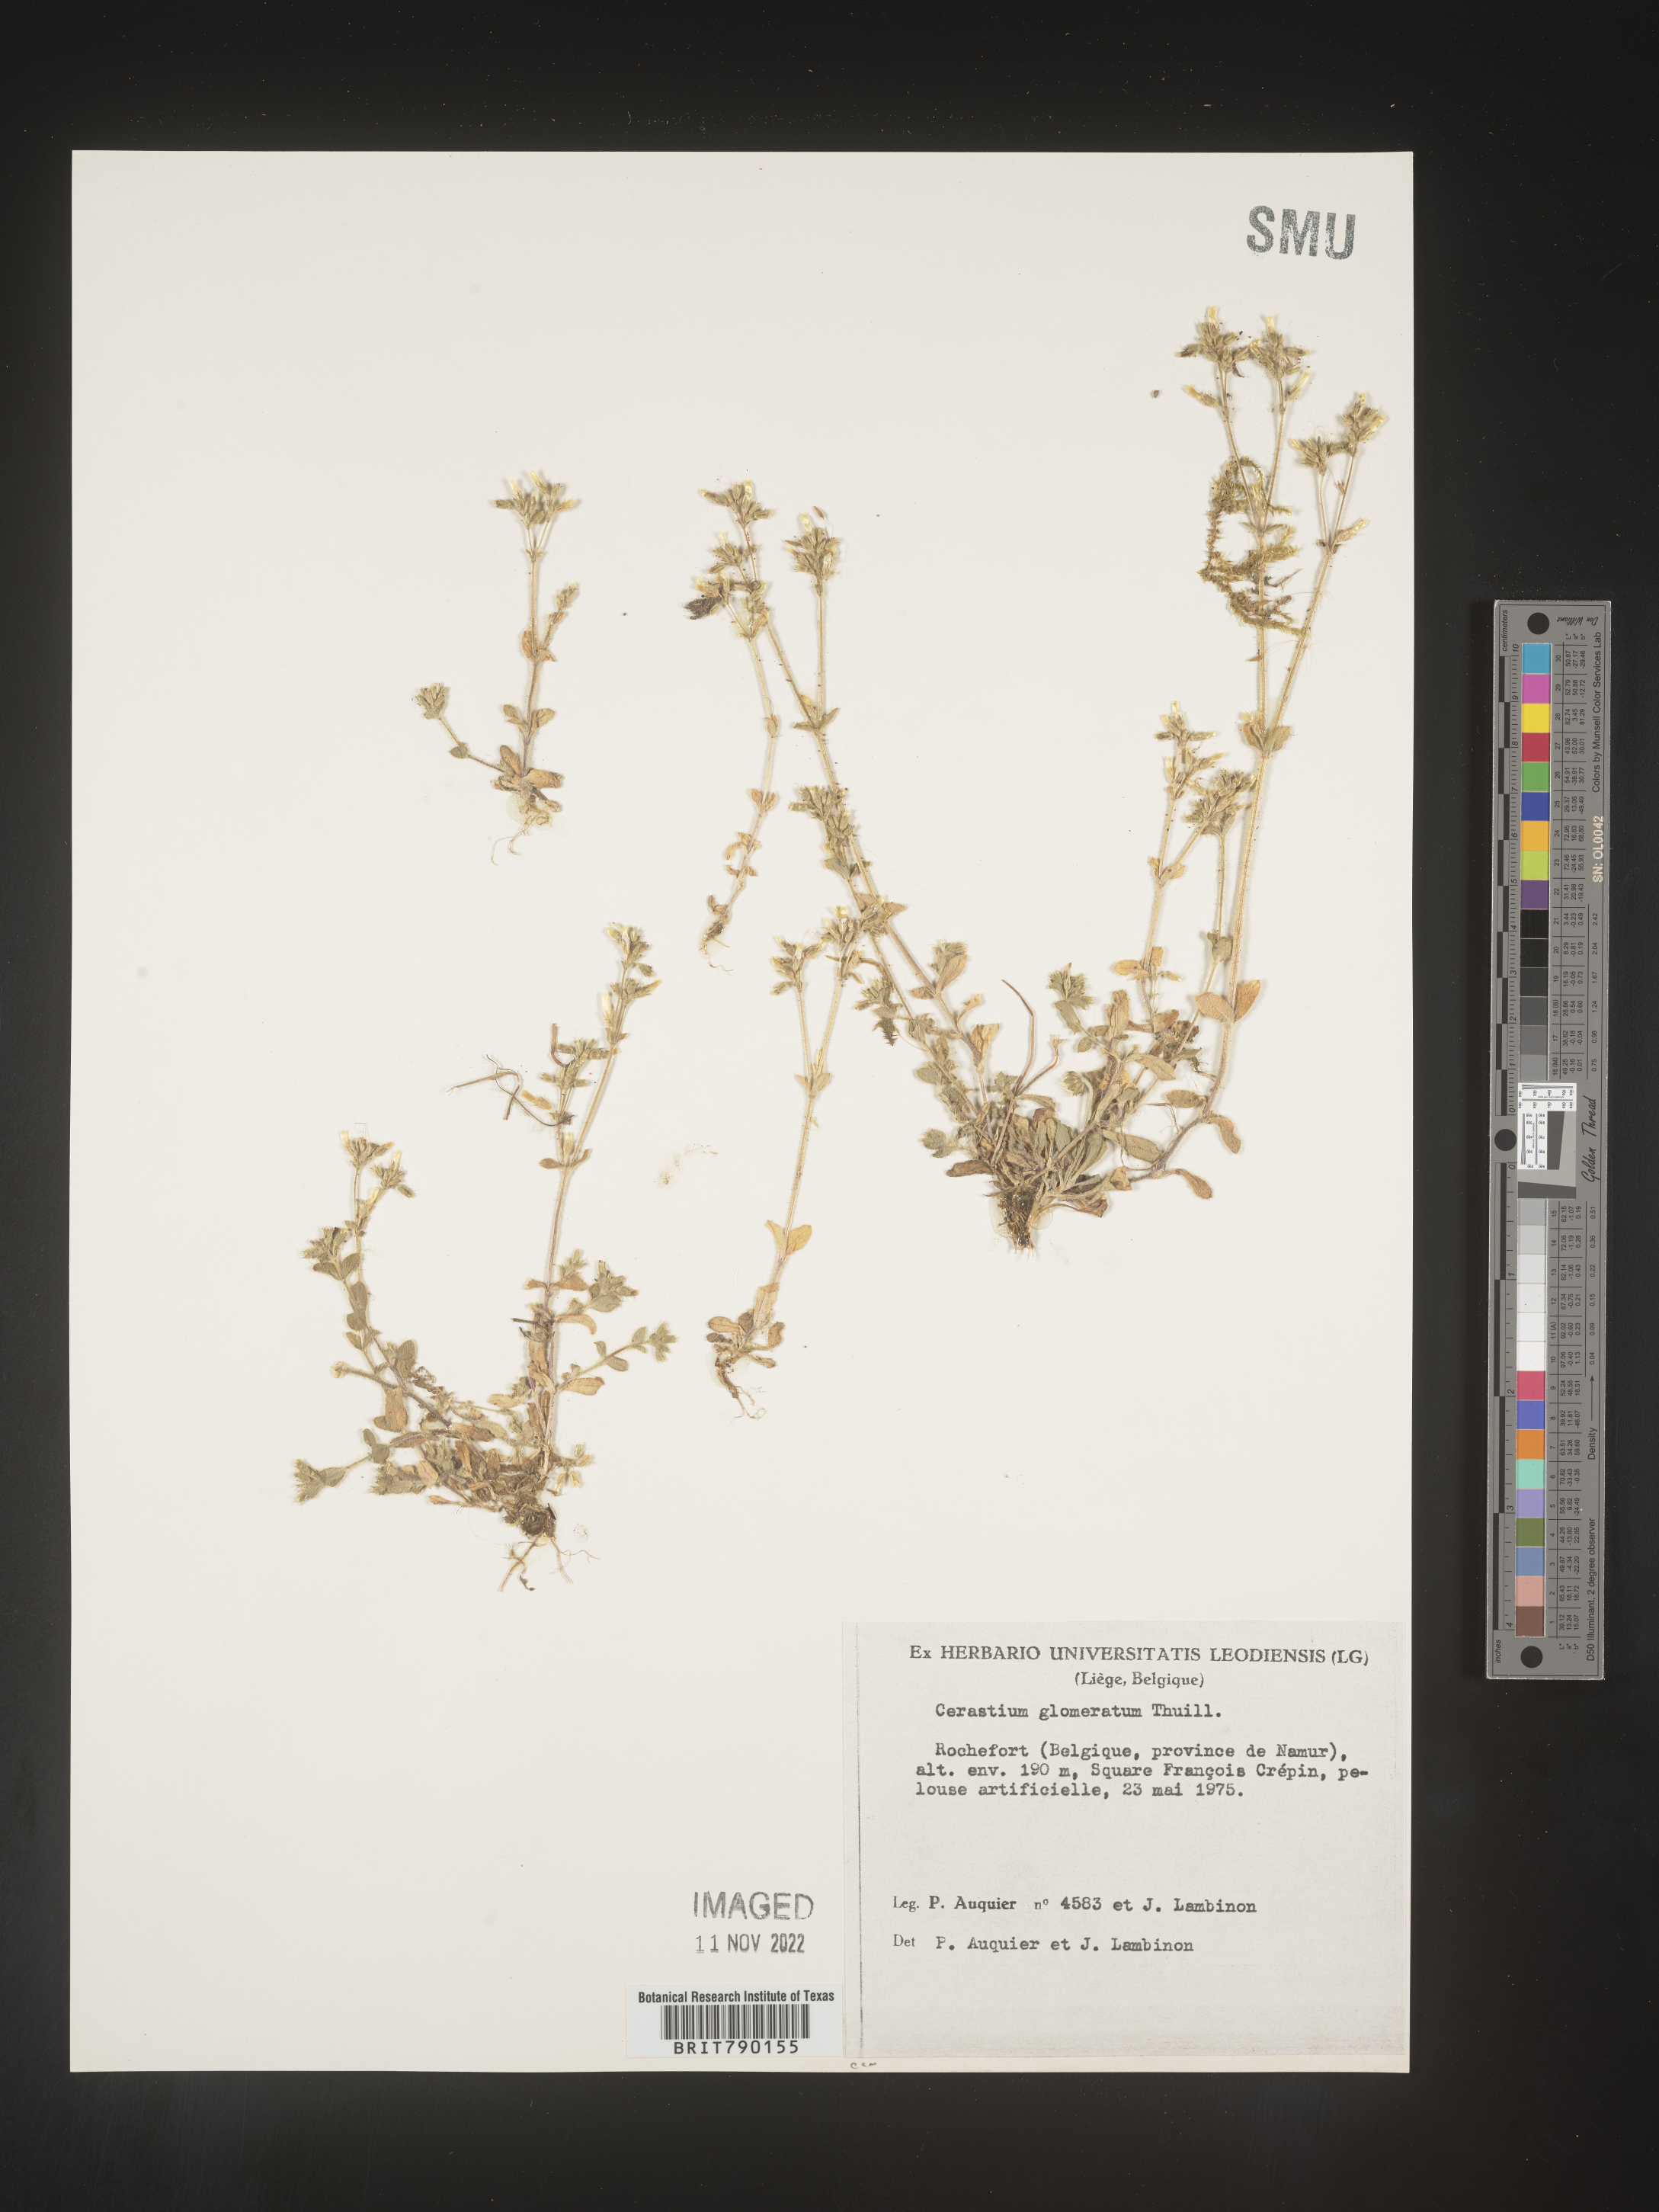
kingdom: Plantae
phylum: Tracheophyta
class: Magnoliopsida
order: Caryophyllales
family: Caryophyllaceae
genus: Cerastium
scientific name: Cerastium
